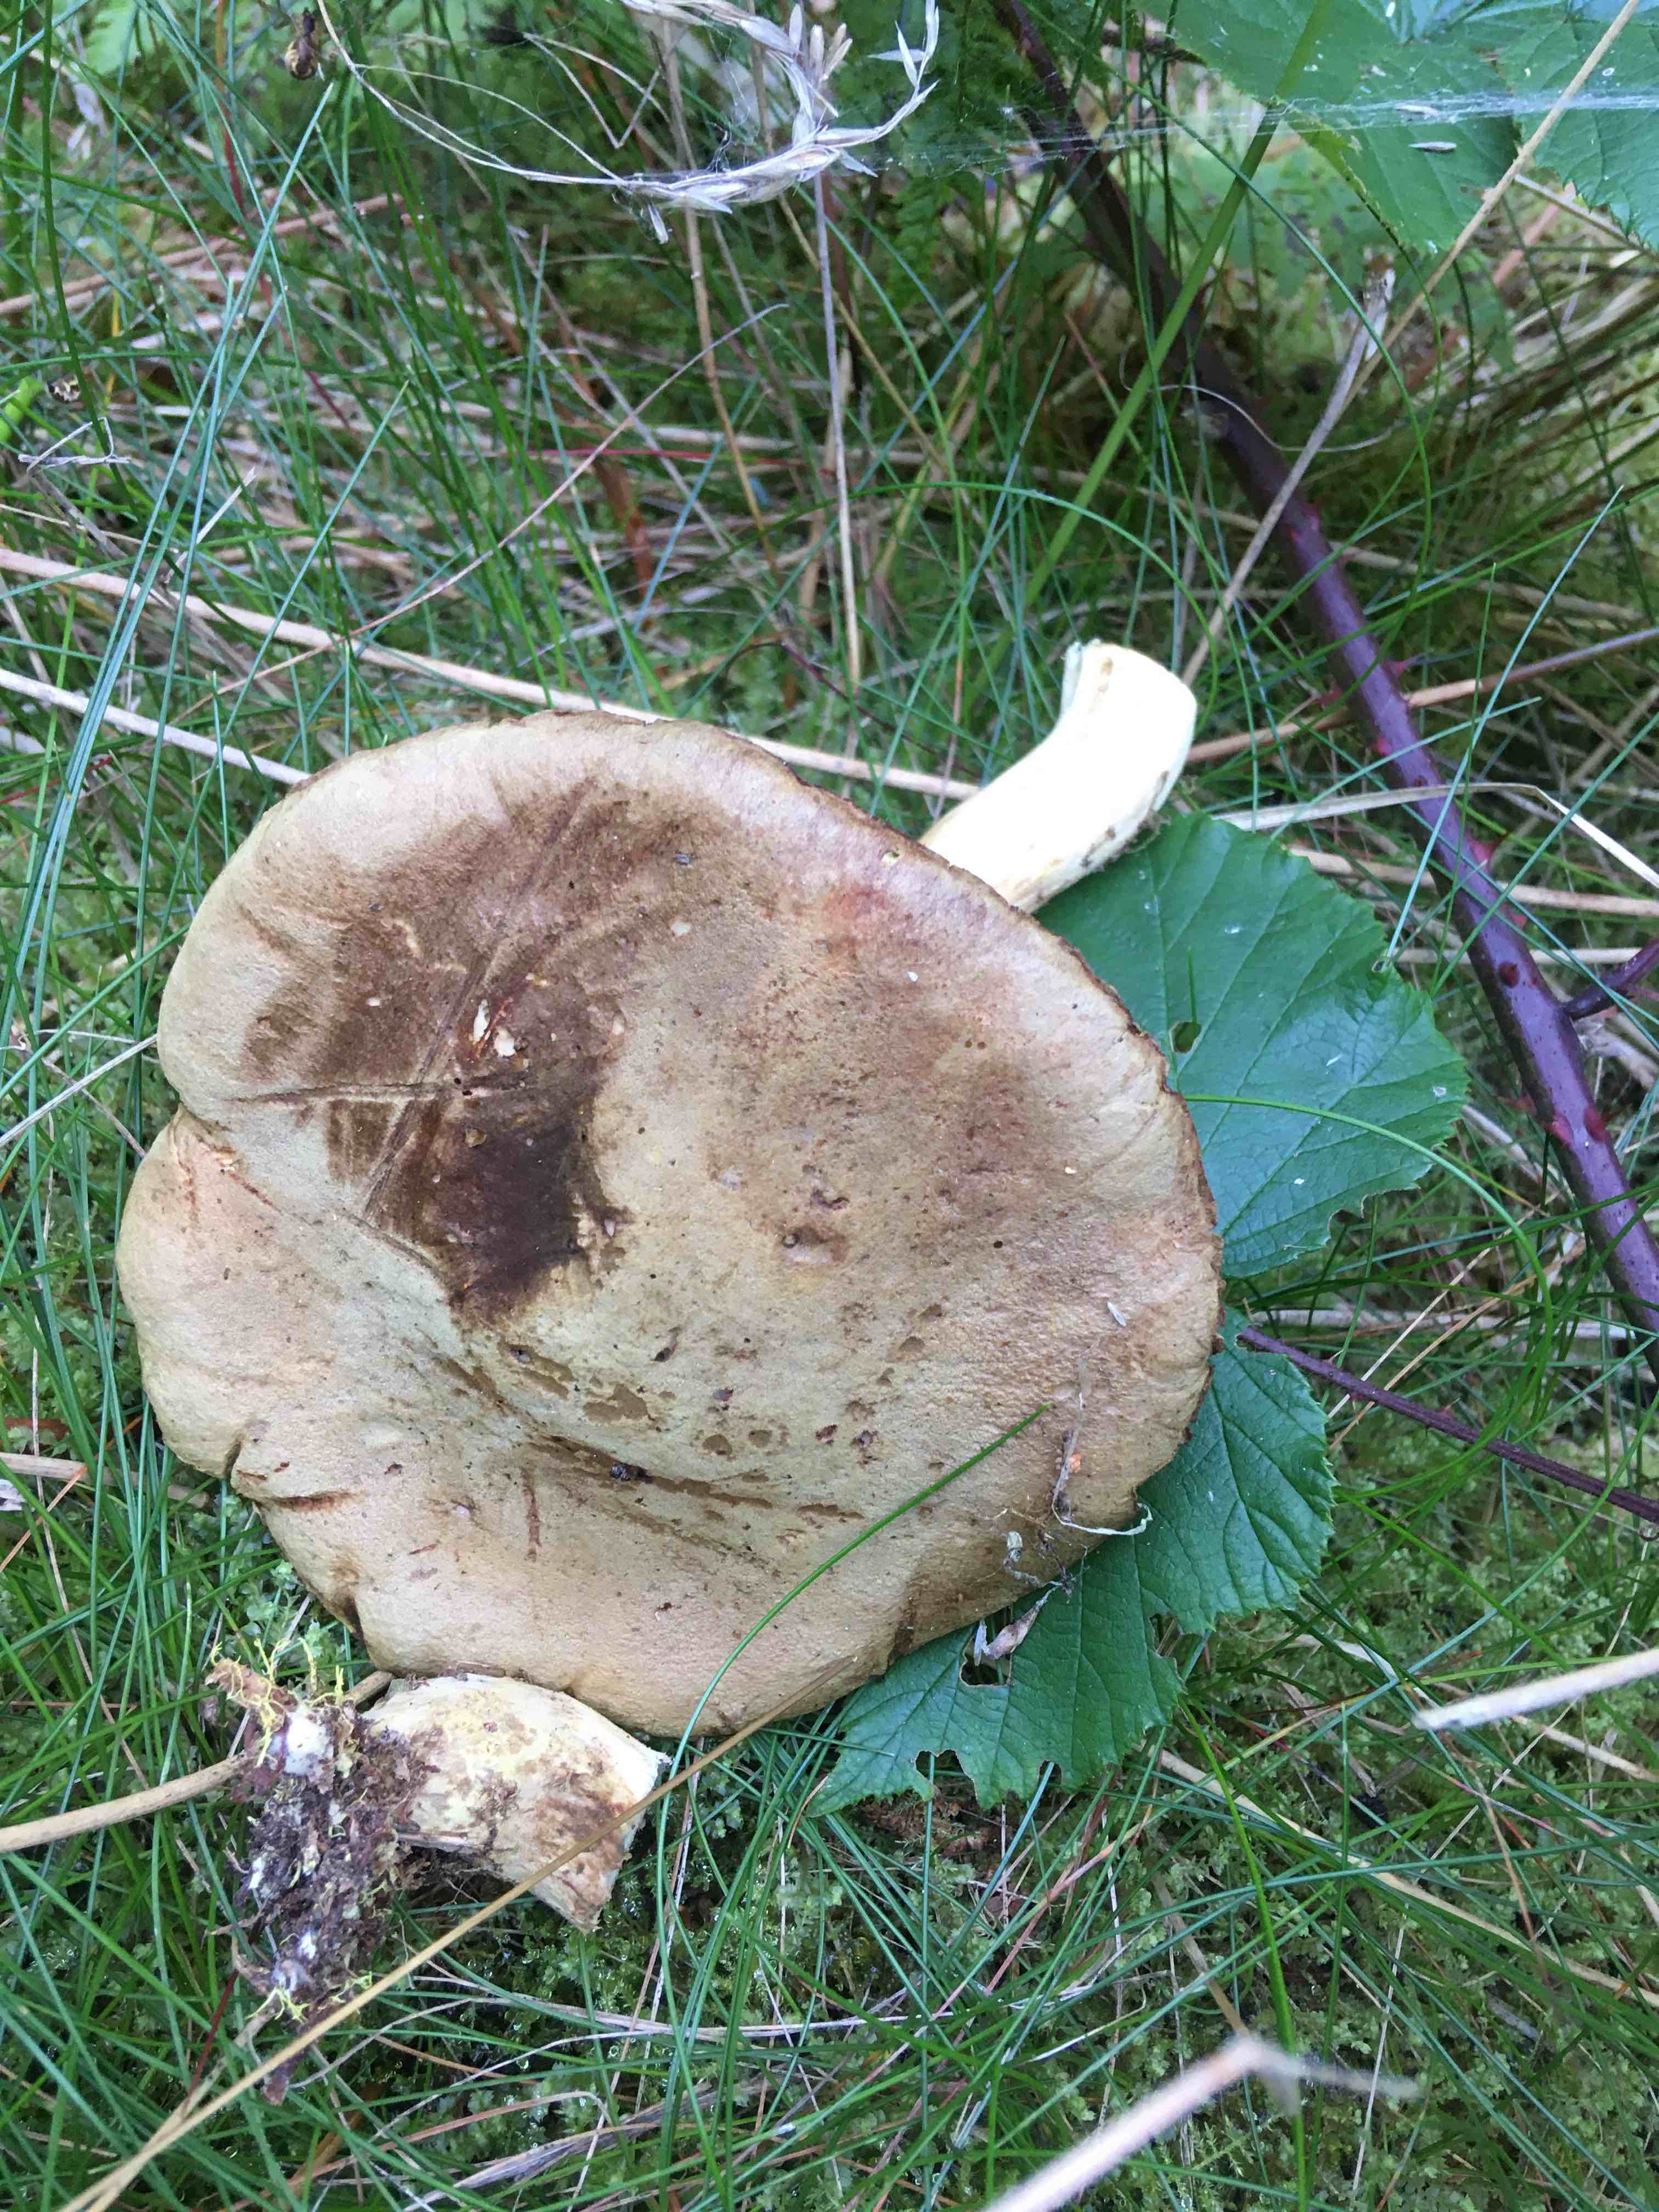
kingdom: Fungi
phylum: Basidiomycota
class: Agaricomycetes
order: Boletales
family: Boletaceae
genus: Xerocomus
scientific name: Xerocomus ferrugineus
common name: vaskeskinds-rørhat
